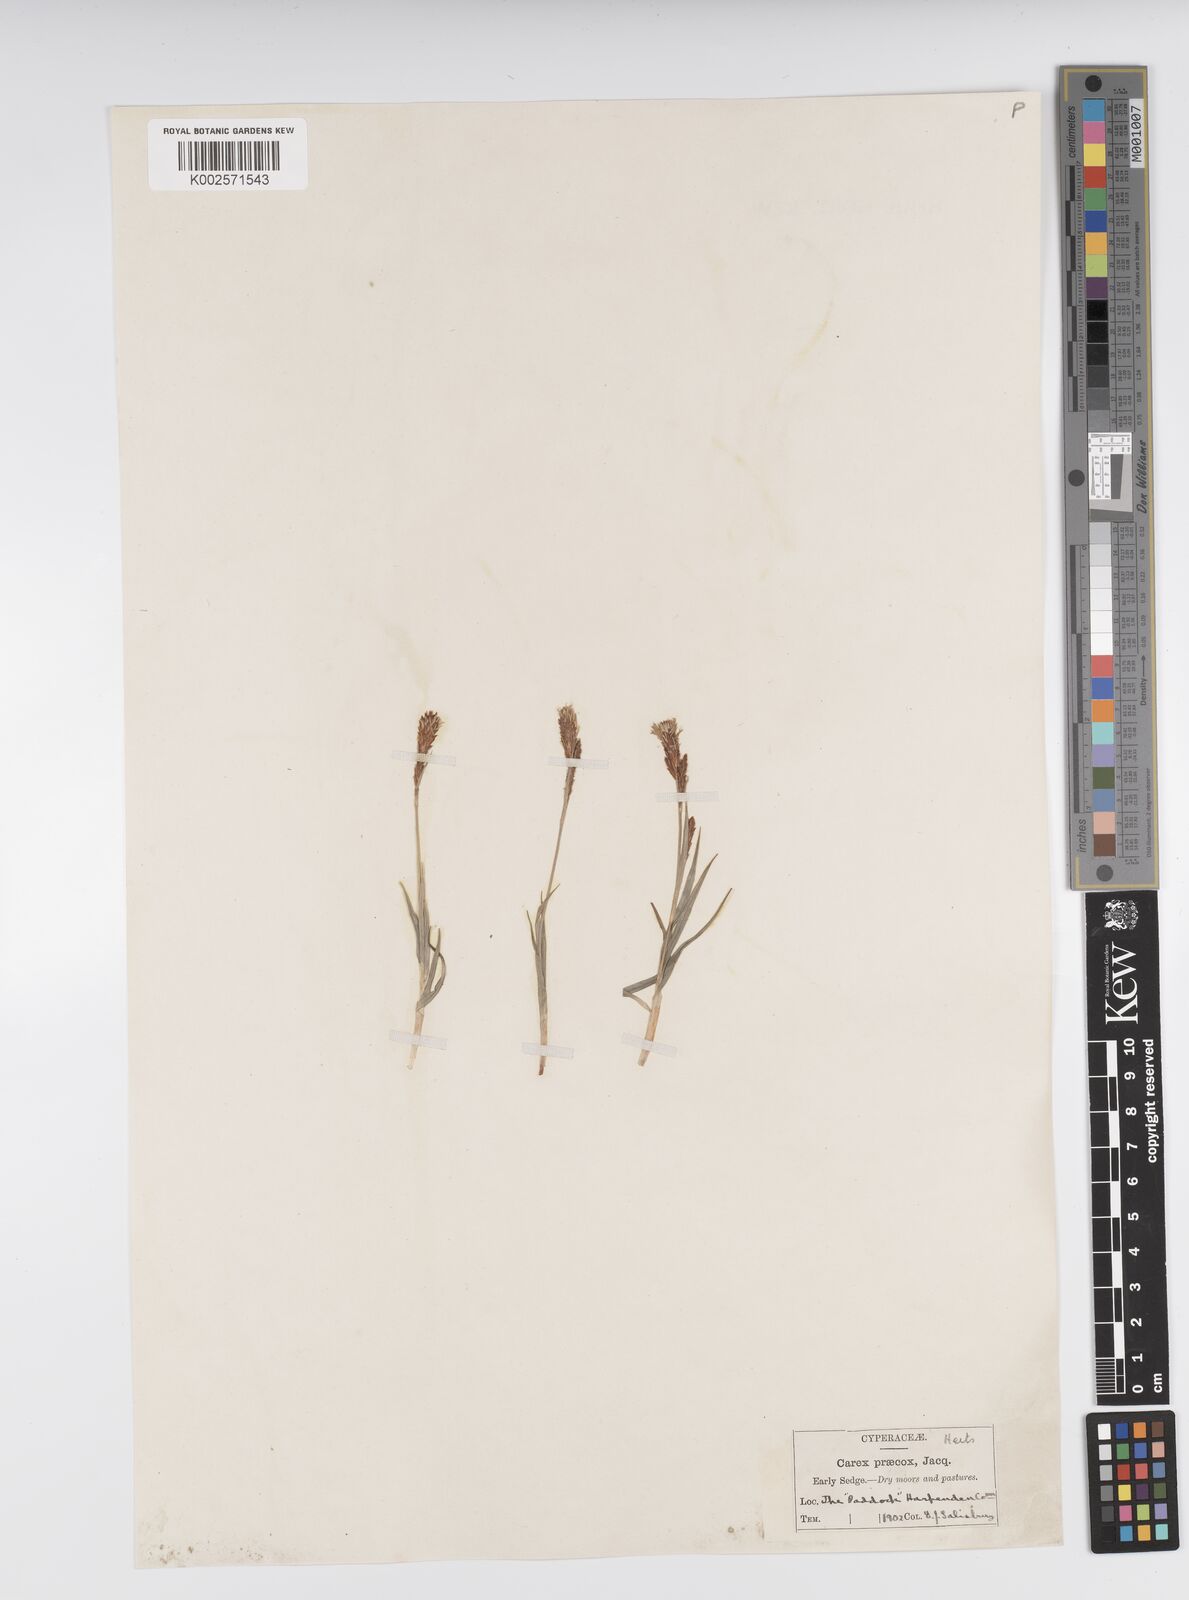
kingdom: Plantae
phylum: Tracheophyta
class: Liliopsida
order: Poales
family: Cyperaceae
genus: Carex
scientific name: Carex caryophyllea
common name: Spring sedge
